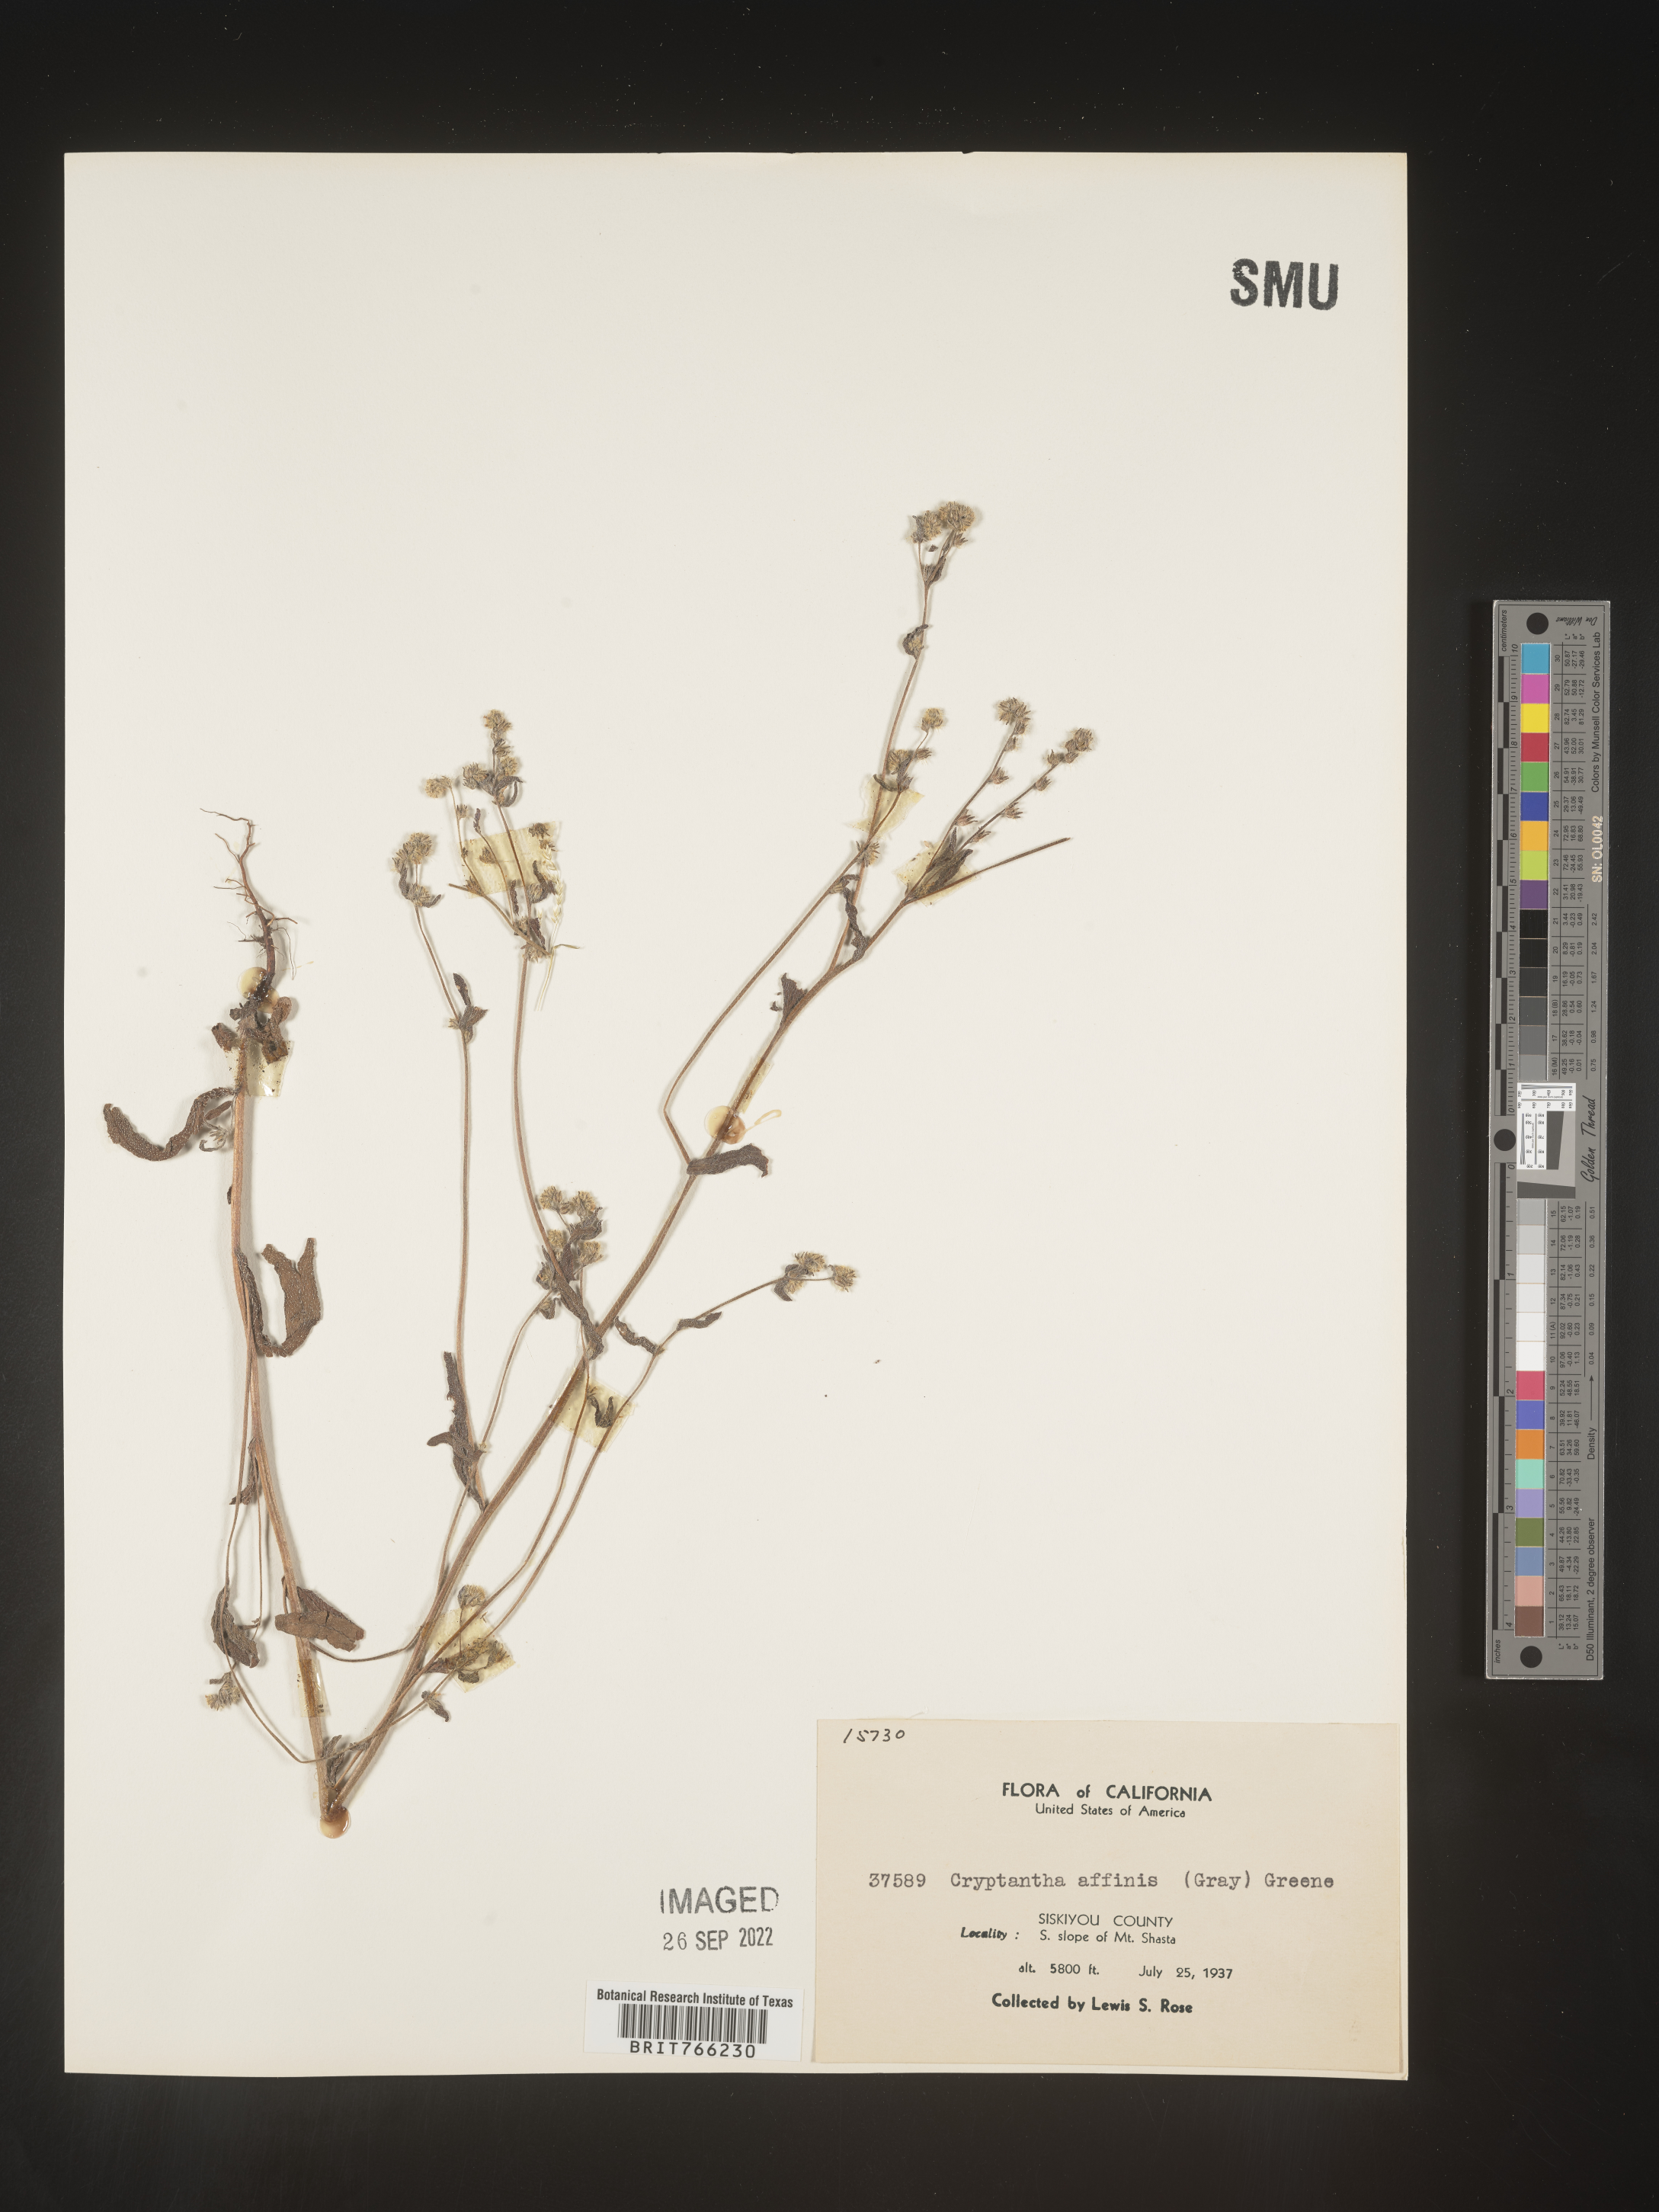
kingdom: Plantae
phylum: Tracheophyta
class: Magnoliopsida
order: Boraginales
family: Boraginaceae
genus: Cryptantha
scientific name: Cryptantha
